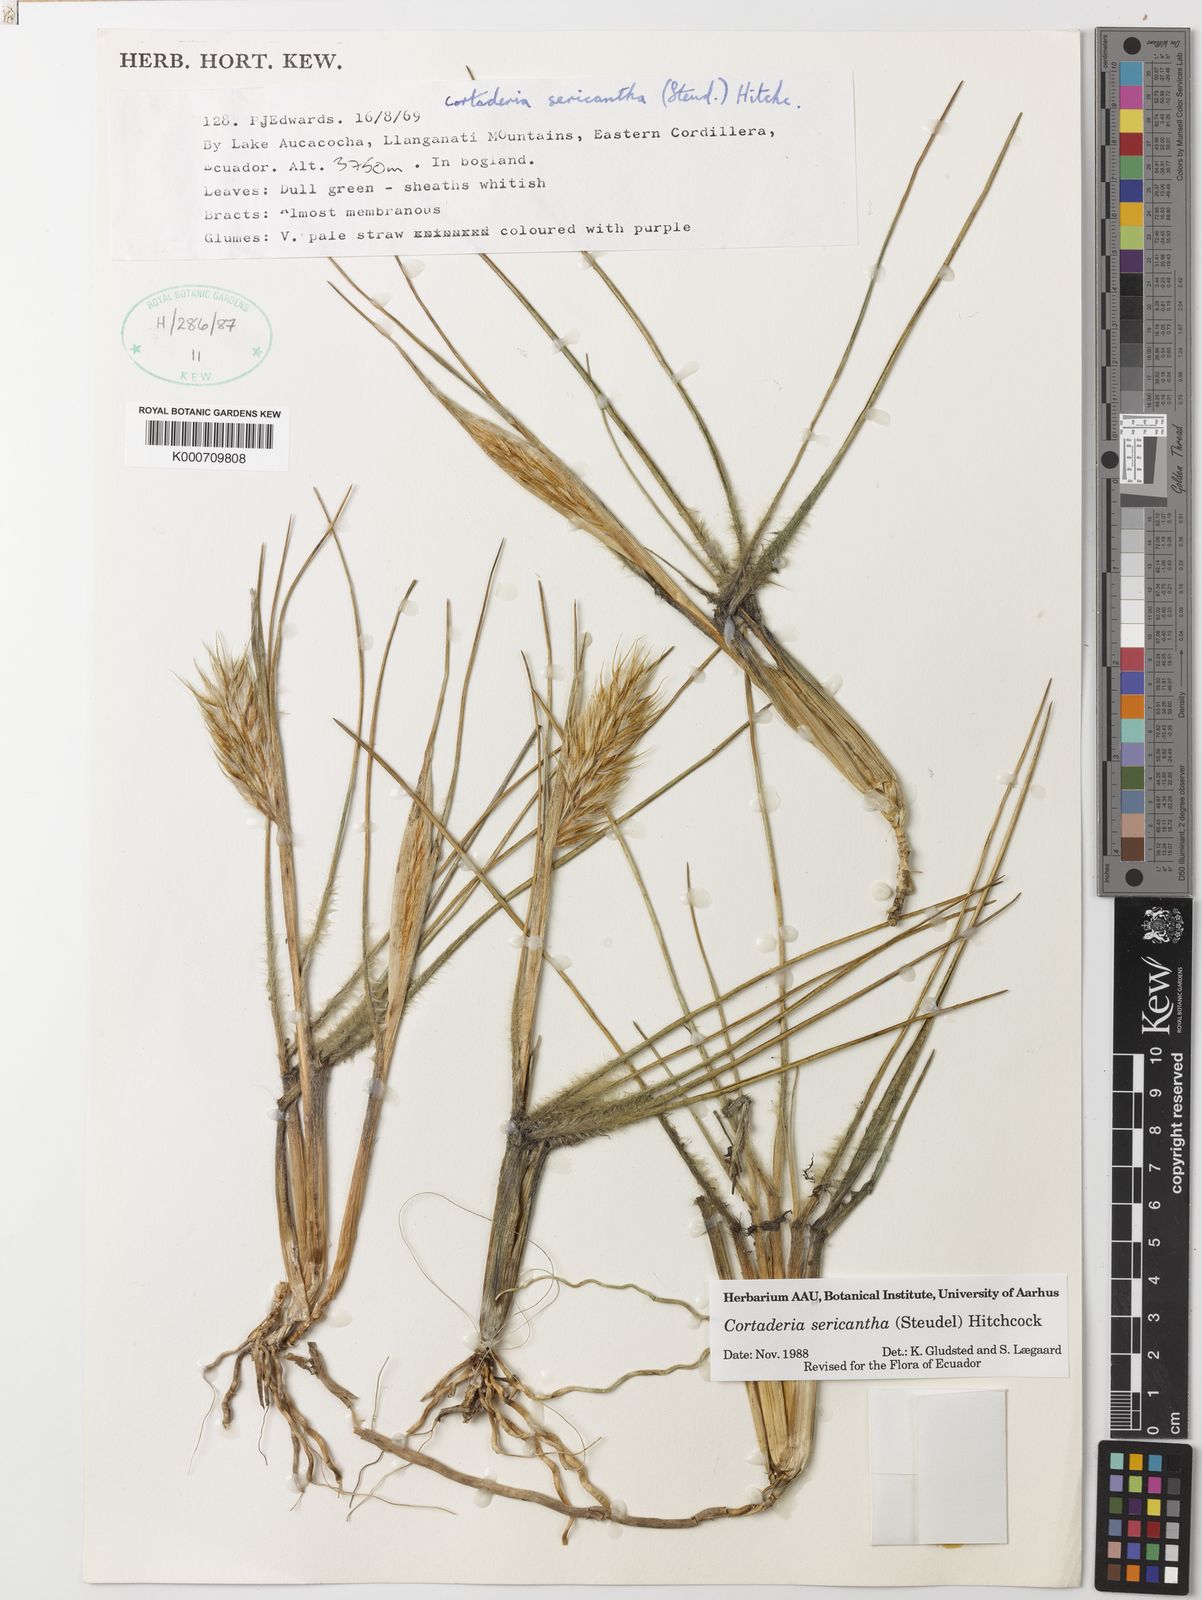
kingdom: Plantae
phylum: Tracheophyta
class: Liliopsida
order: Poales
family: Poaceae
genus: Cortaderia
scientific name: Cortaderia sericantha
